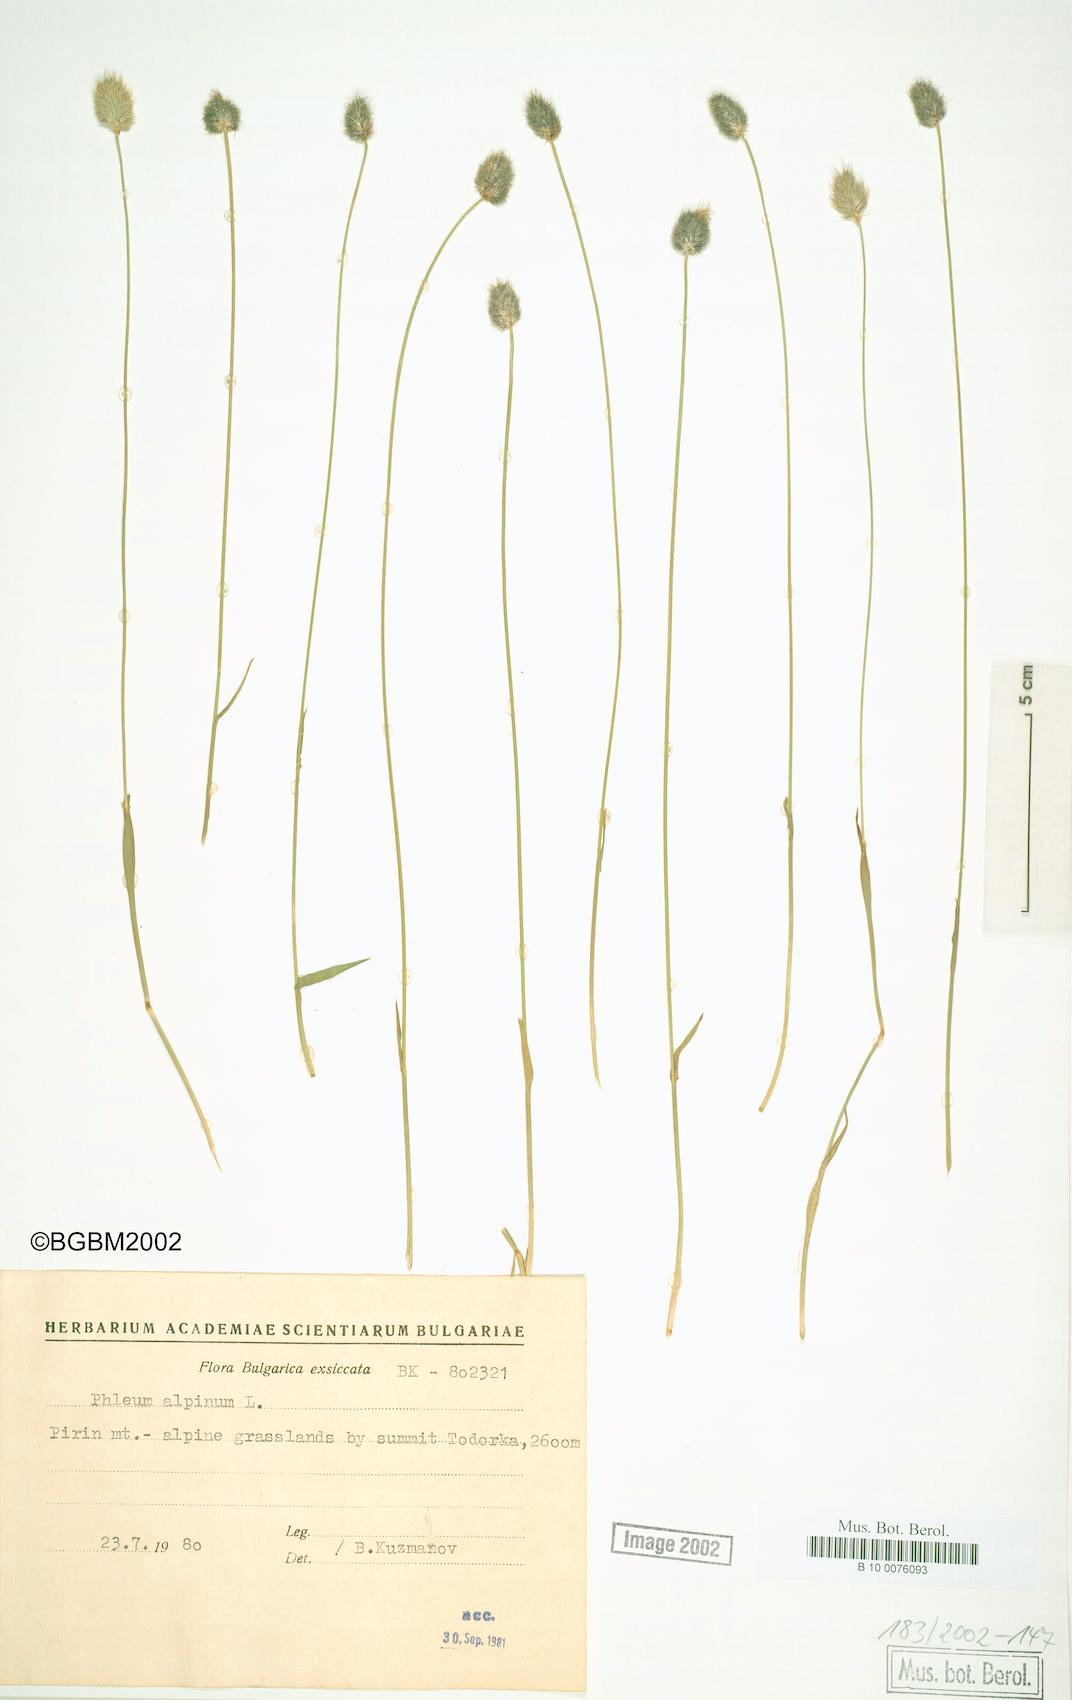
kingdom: Plantae
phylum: Tracheophyta
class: Liliopsida
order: Poales
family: Poaceae
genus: Phleum
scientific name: Phleum alpinum
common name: Alpine cat's-tail
